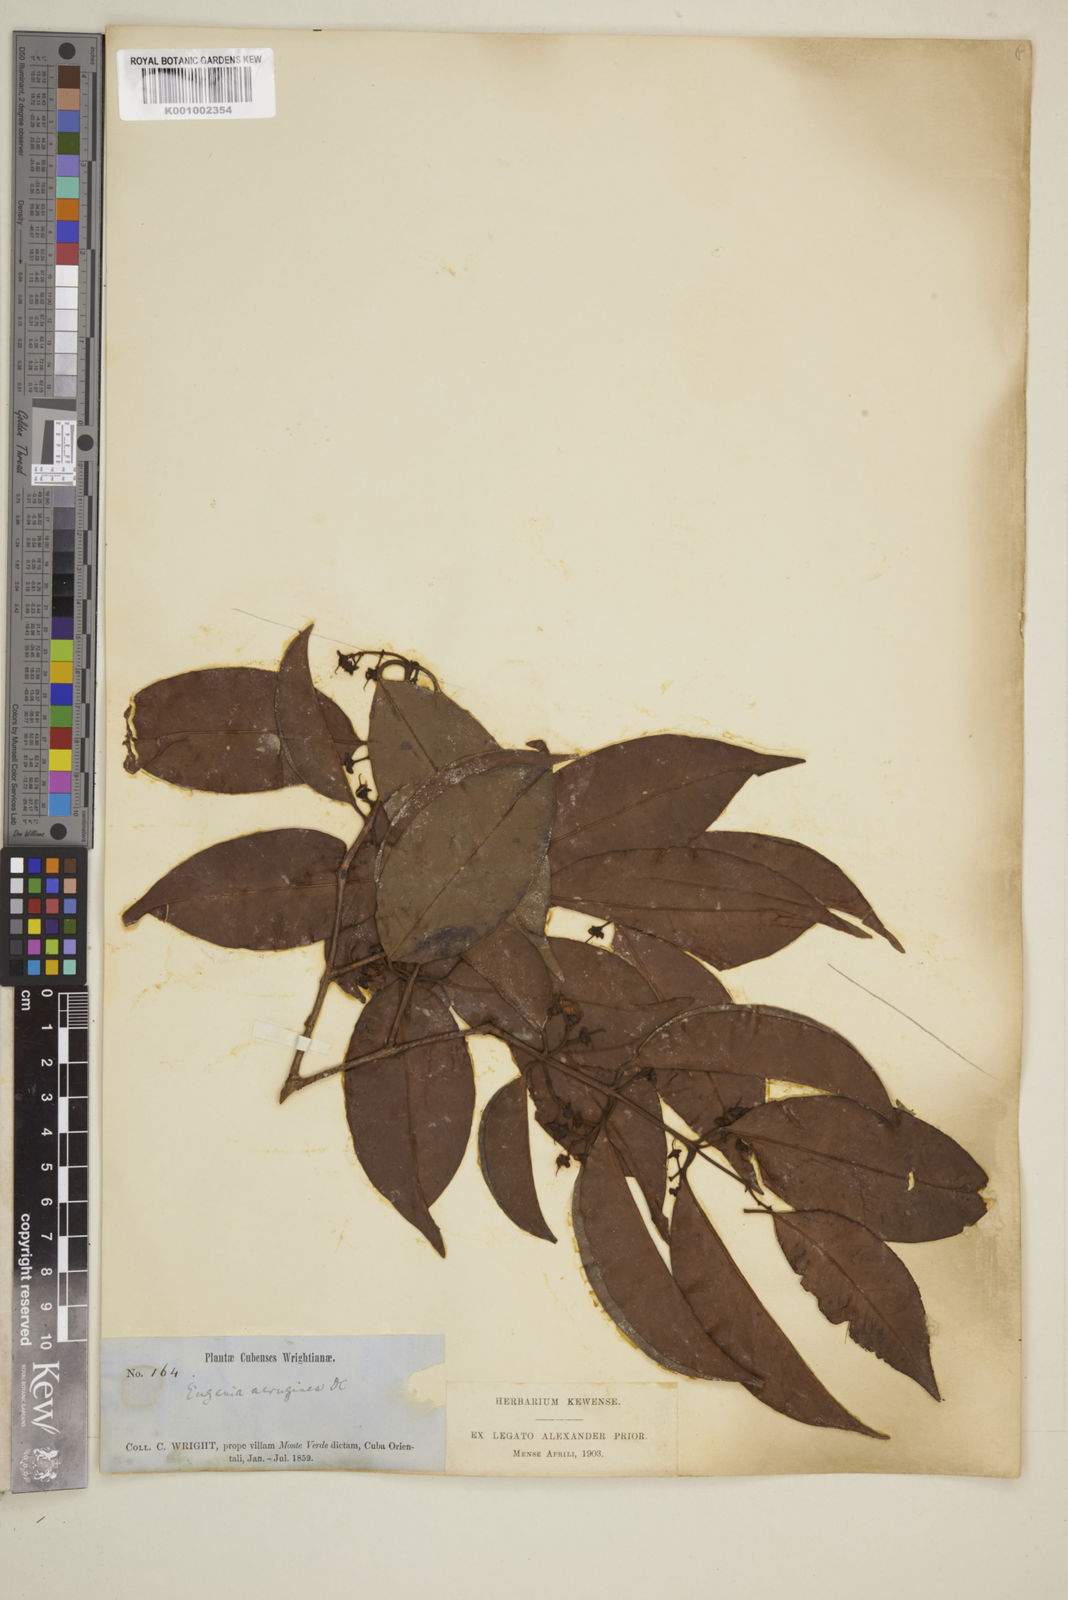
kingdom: Plantae
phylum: Tracheophyta
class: Magnoliopsida
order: Myrtales
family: Myrtaceae
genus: Eugenia
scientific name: Eugenia aeruginea
